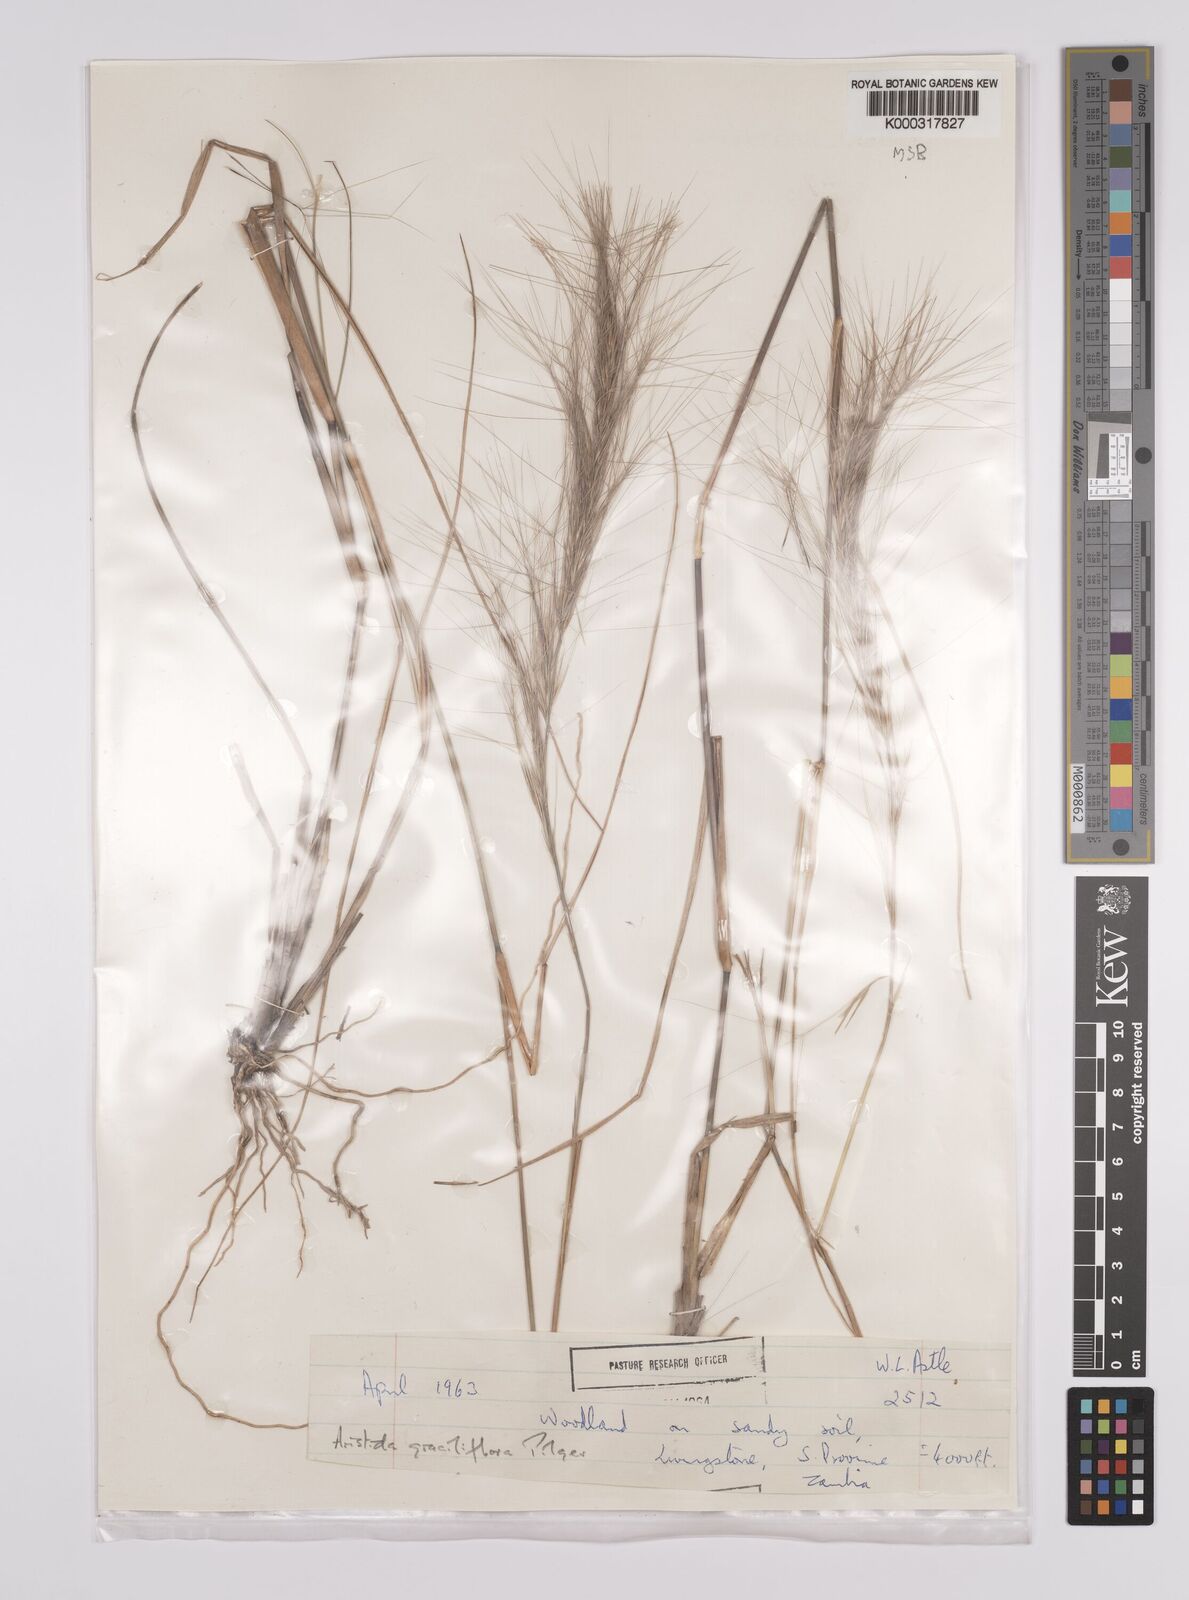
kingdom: Plantae
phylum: Tracheophyta
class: Liliopsida
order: Poales
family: Poaceae
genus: Aristida
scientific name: Aristida stipitata
